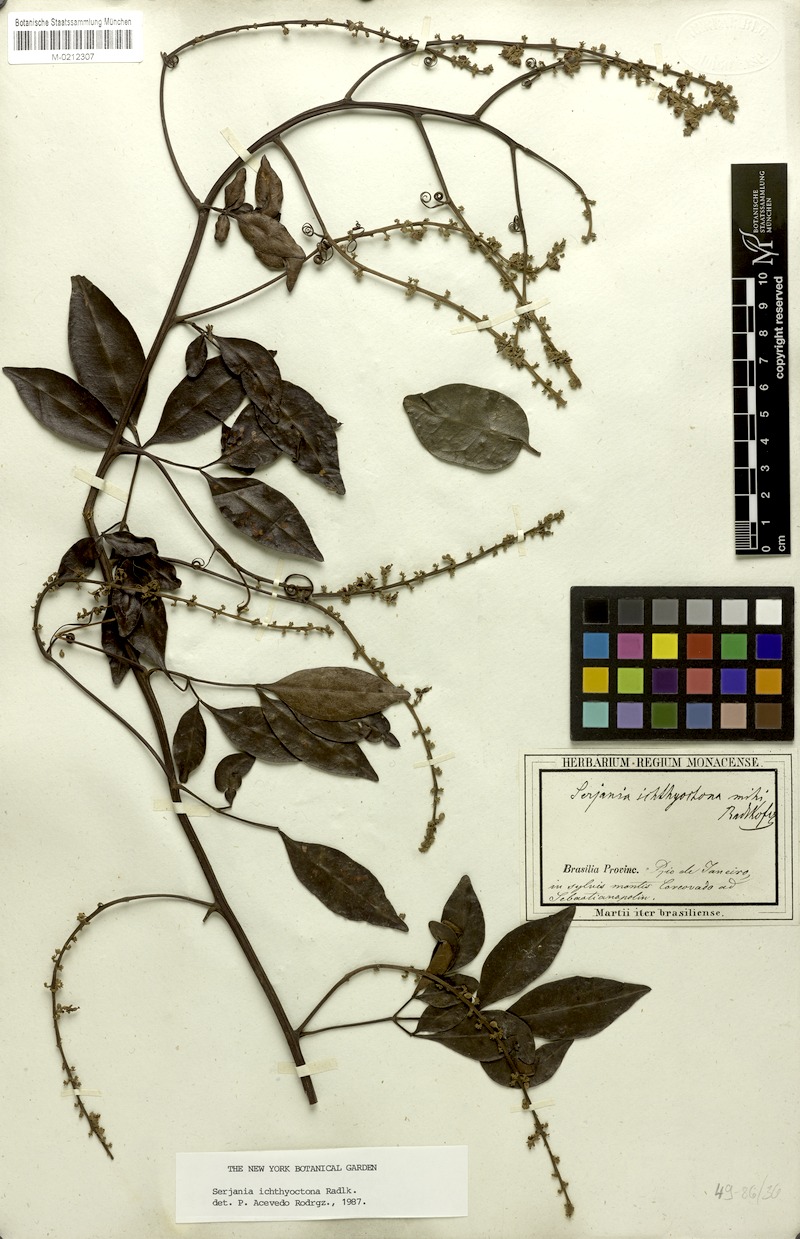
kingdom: Plantae
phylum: Tracheophyta
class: Magnoliopsida
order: Sapindales
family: Sapindaceae
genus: Serjania
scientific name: Serjania ichthyctona
